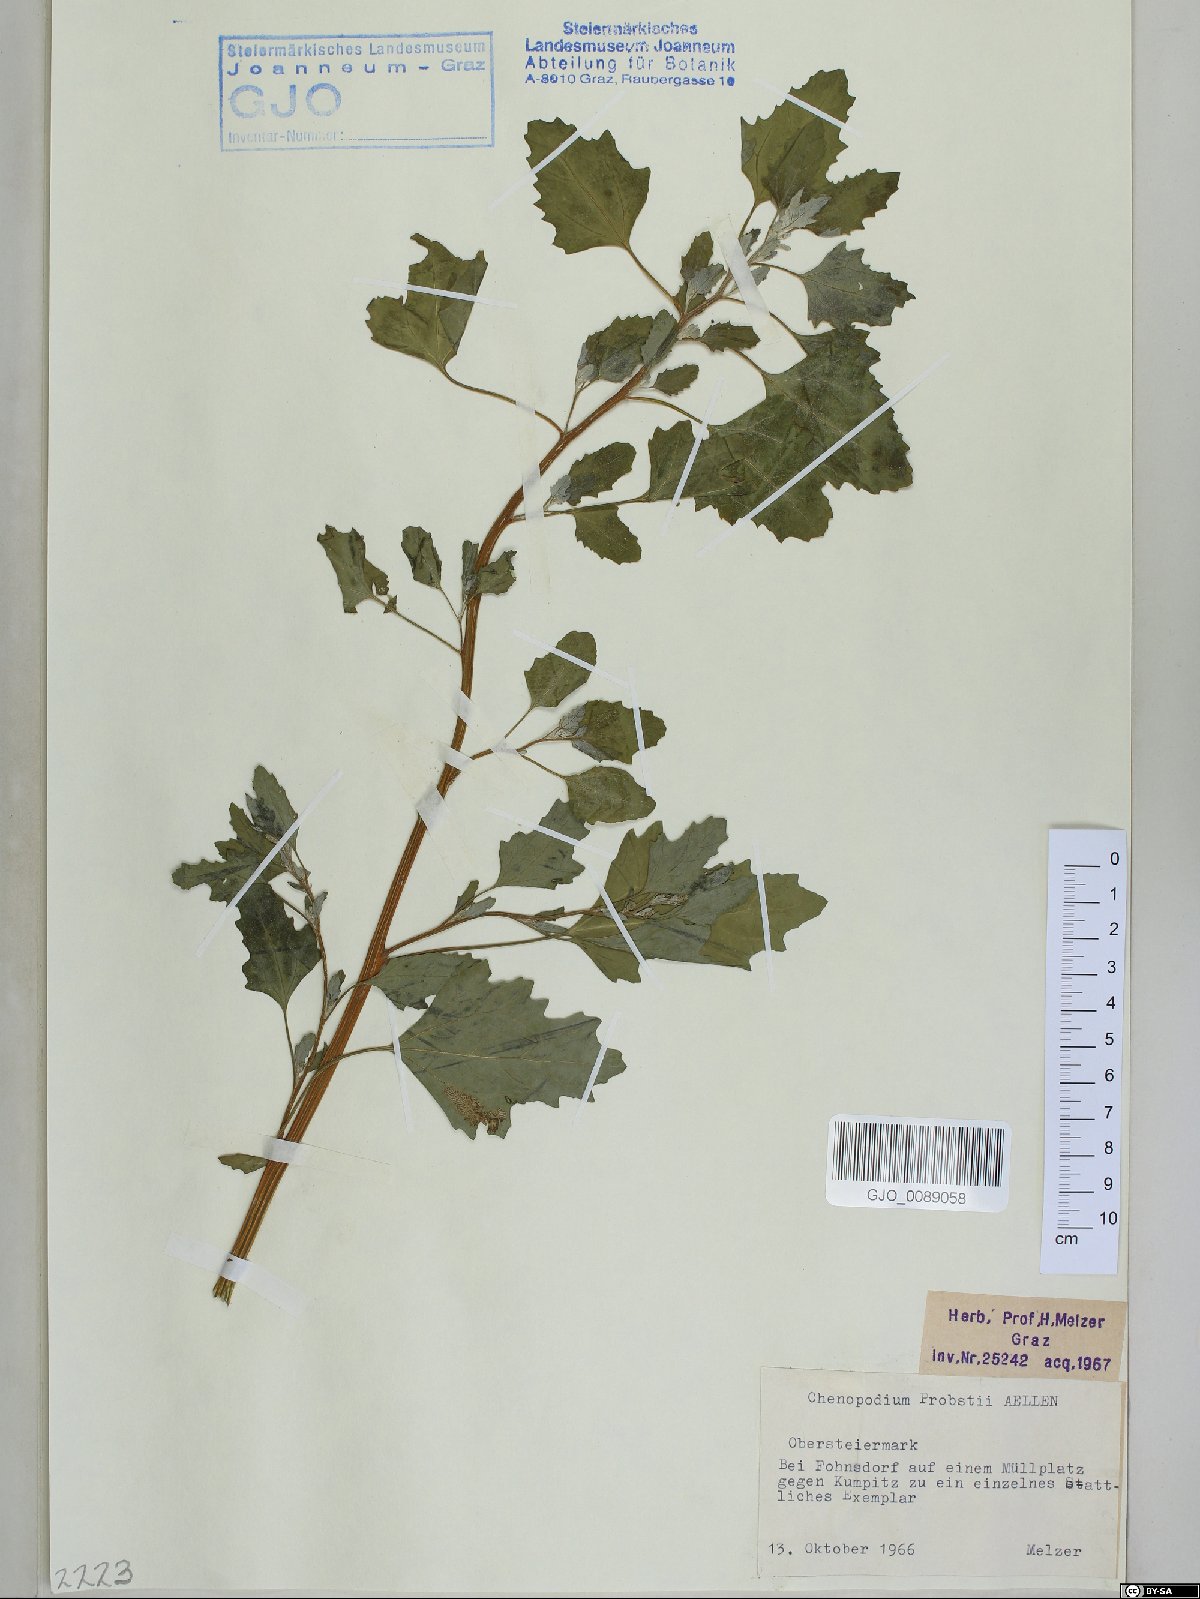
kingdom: Plantae
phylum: Tracheophyta
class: Magnoliopsida
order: Caryophyllales
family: Amaranthaceae
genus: Chenopodium
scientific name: Chenopodium probstii
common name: Probst's goosefoot
